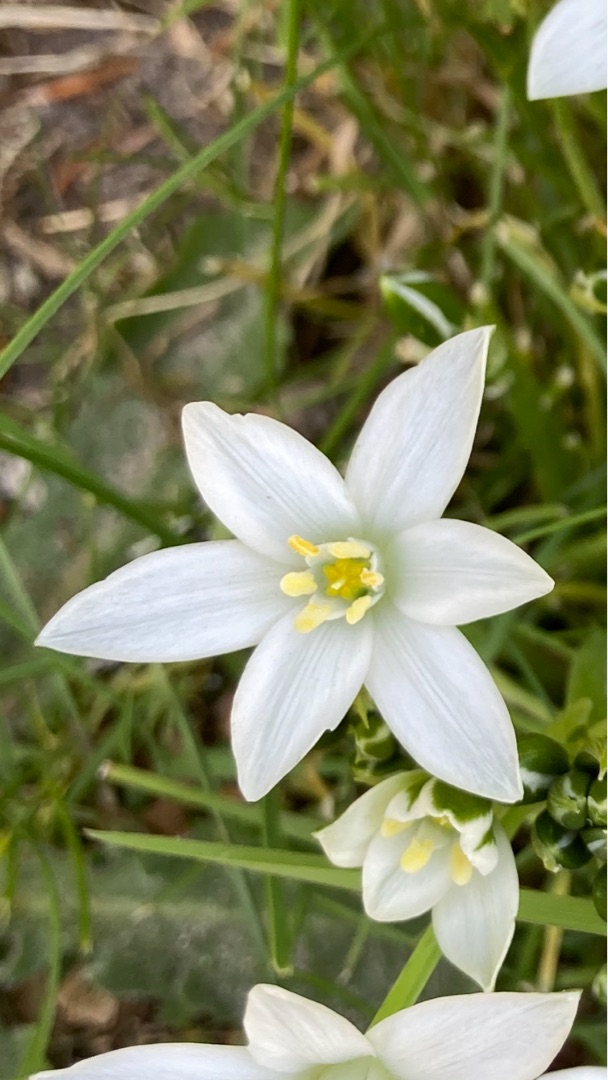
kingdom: Plantae
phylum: Tracheophyta
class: Liliopsida
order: Asparagales
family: Asparagaceae
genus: Ornithogalum
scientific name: Ornithogalum umbellatum
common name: Kost-fuglemælk
